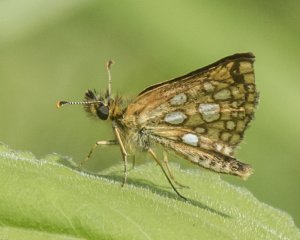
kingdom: Animalia
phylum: Arthropoda
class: Insecta
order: Lepidoptera
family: Hesperiidae
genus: Carterocephalus
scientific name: Carterocephalus palaemon
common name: Chequered Skipper
